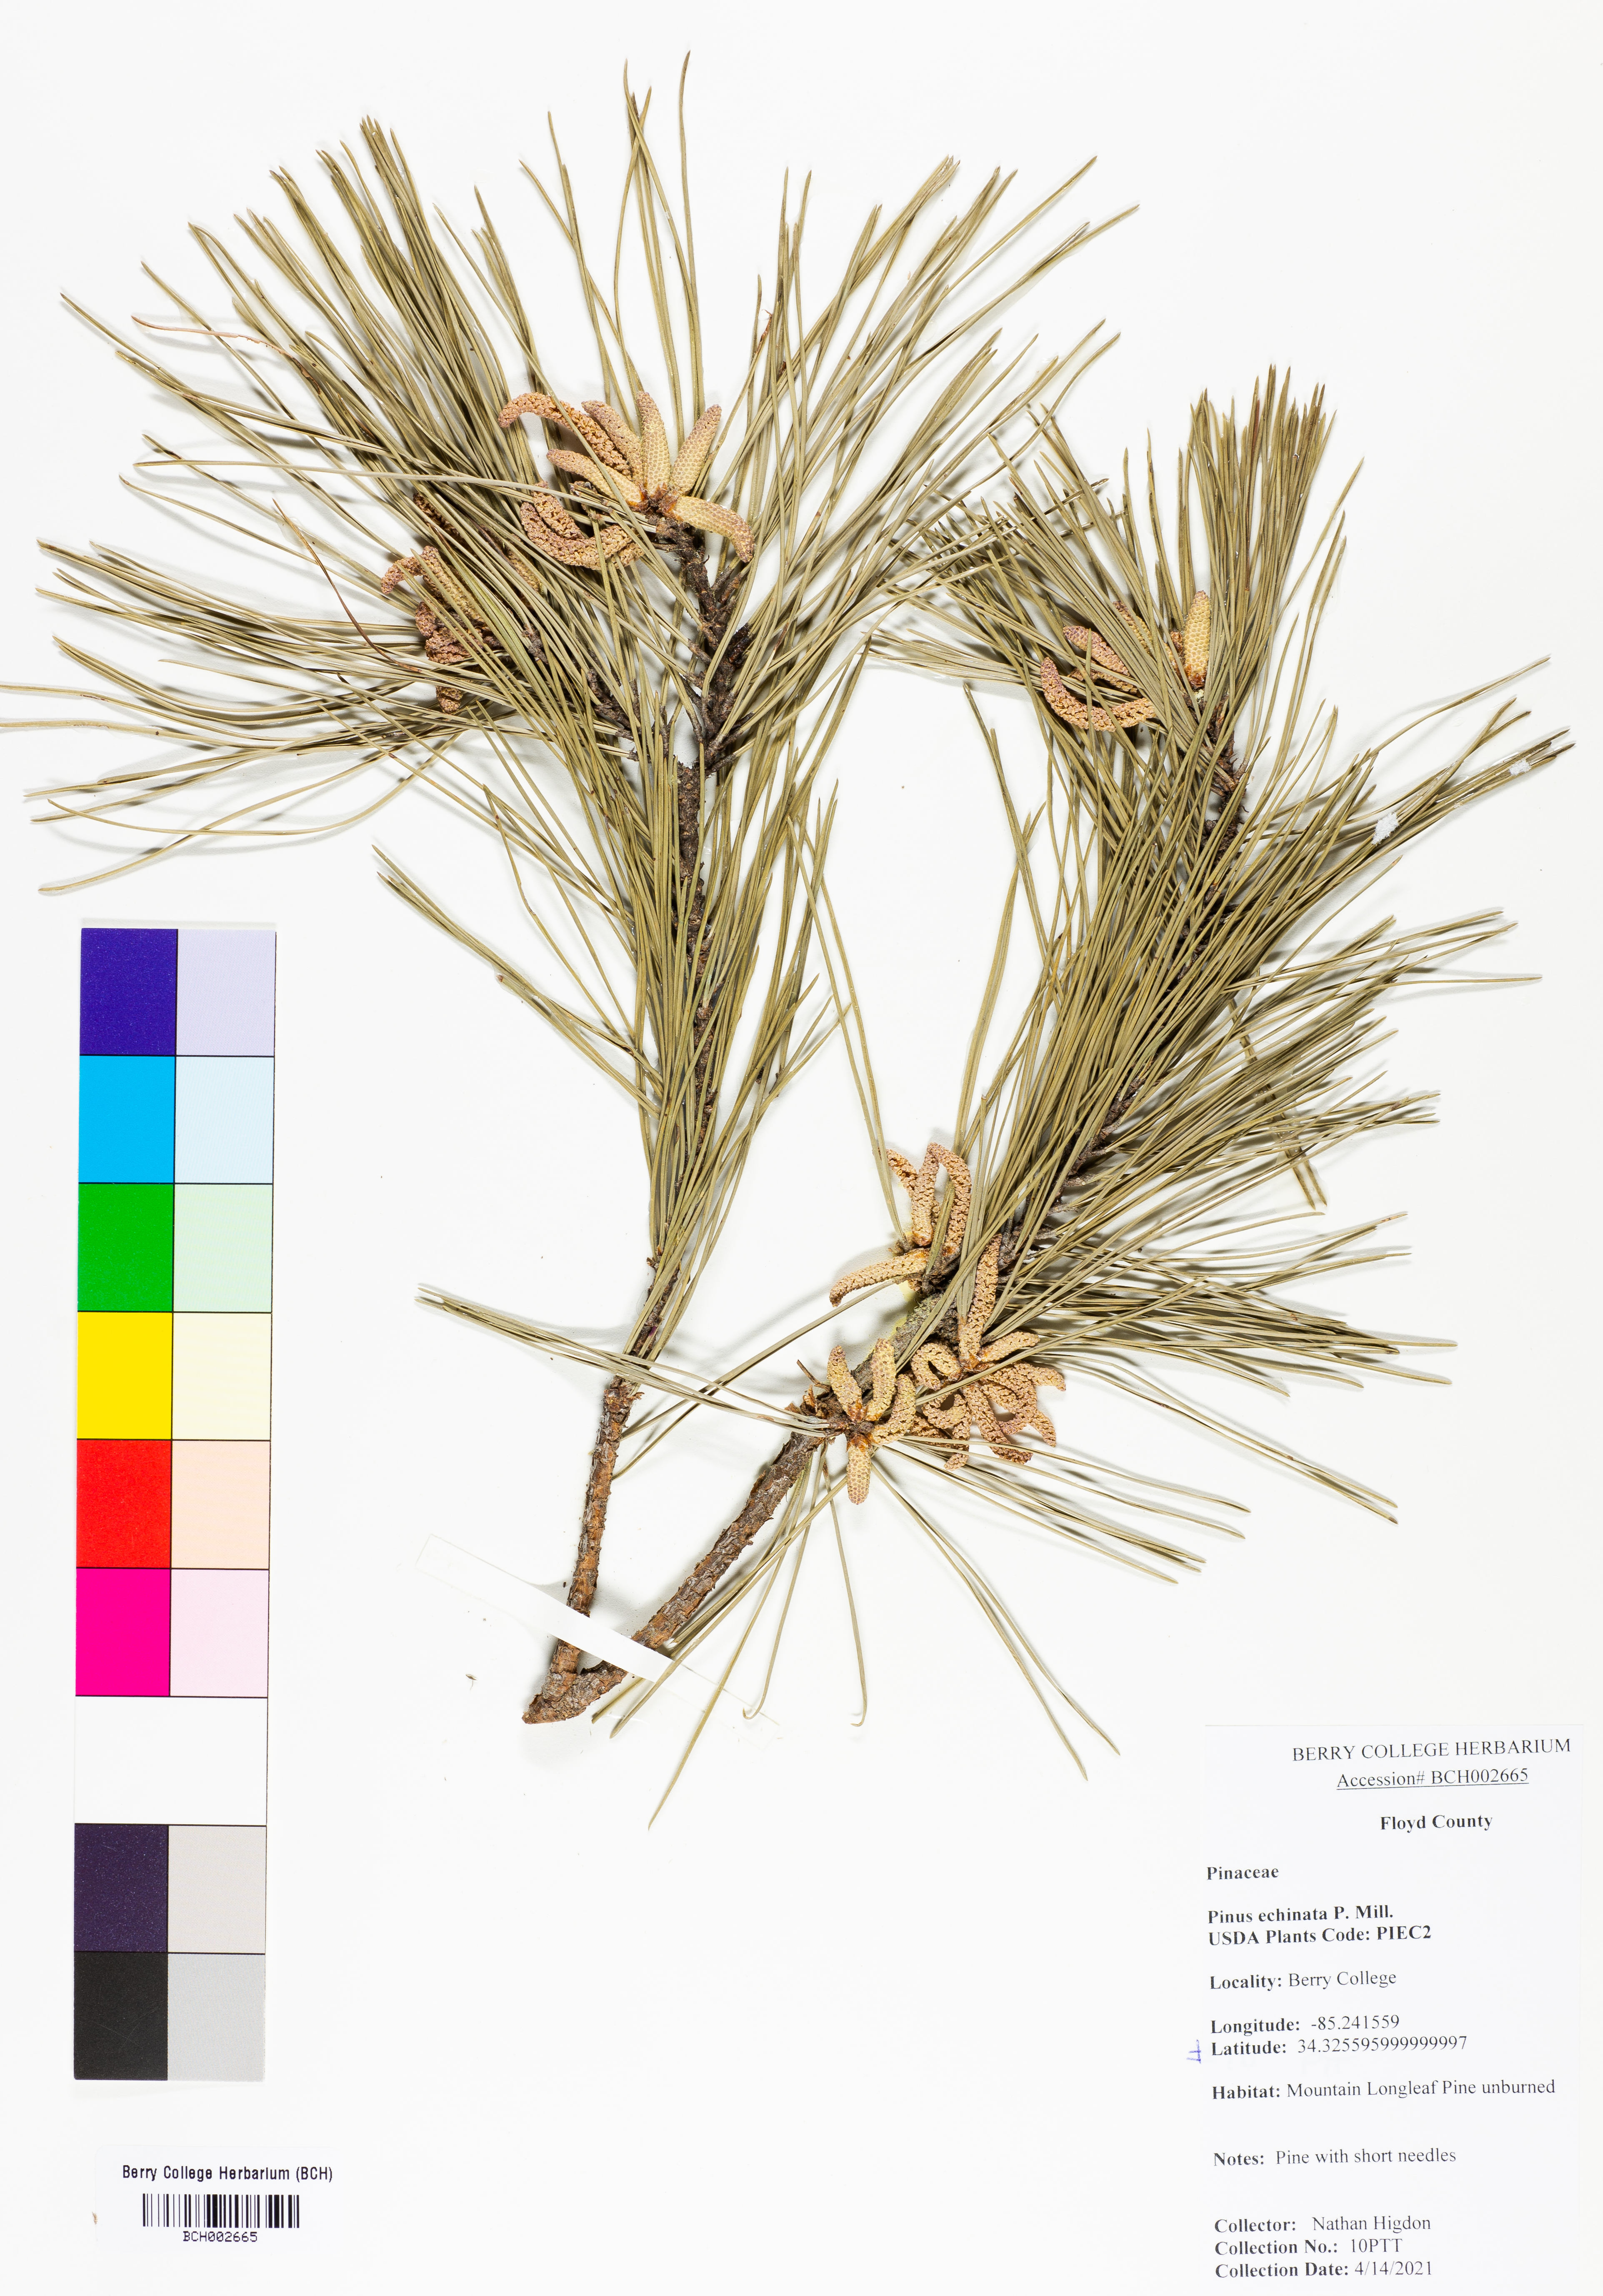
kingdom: Plantae
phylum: Tracheophyta
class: Pinopsida
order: Pinales
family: Pinaceae
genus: Pinus
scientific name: Pinus echinata
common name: Shortleaf pine
